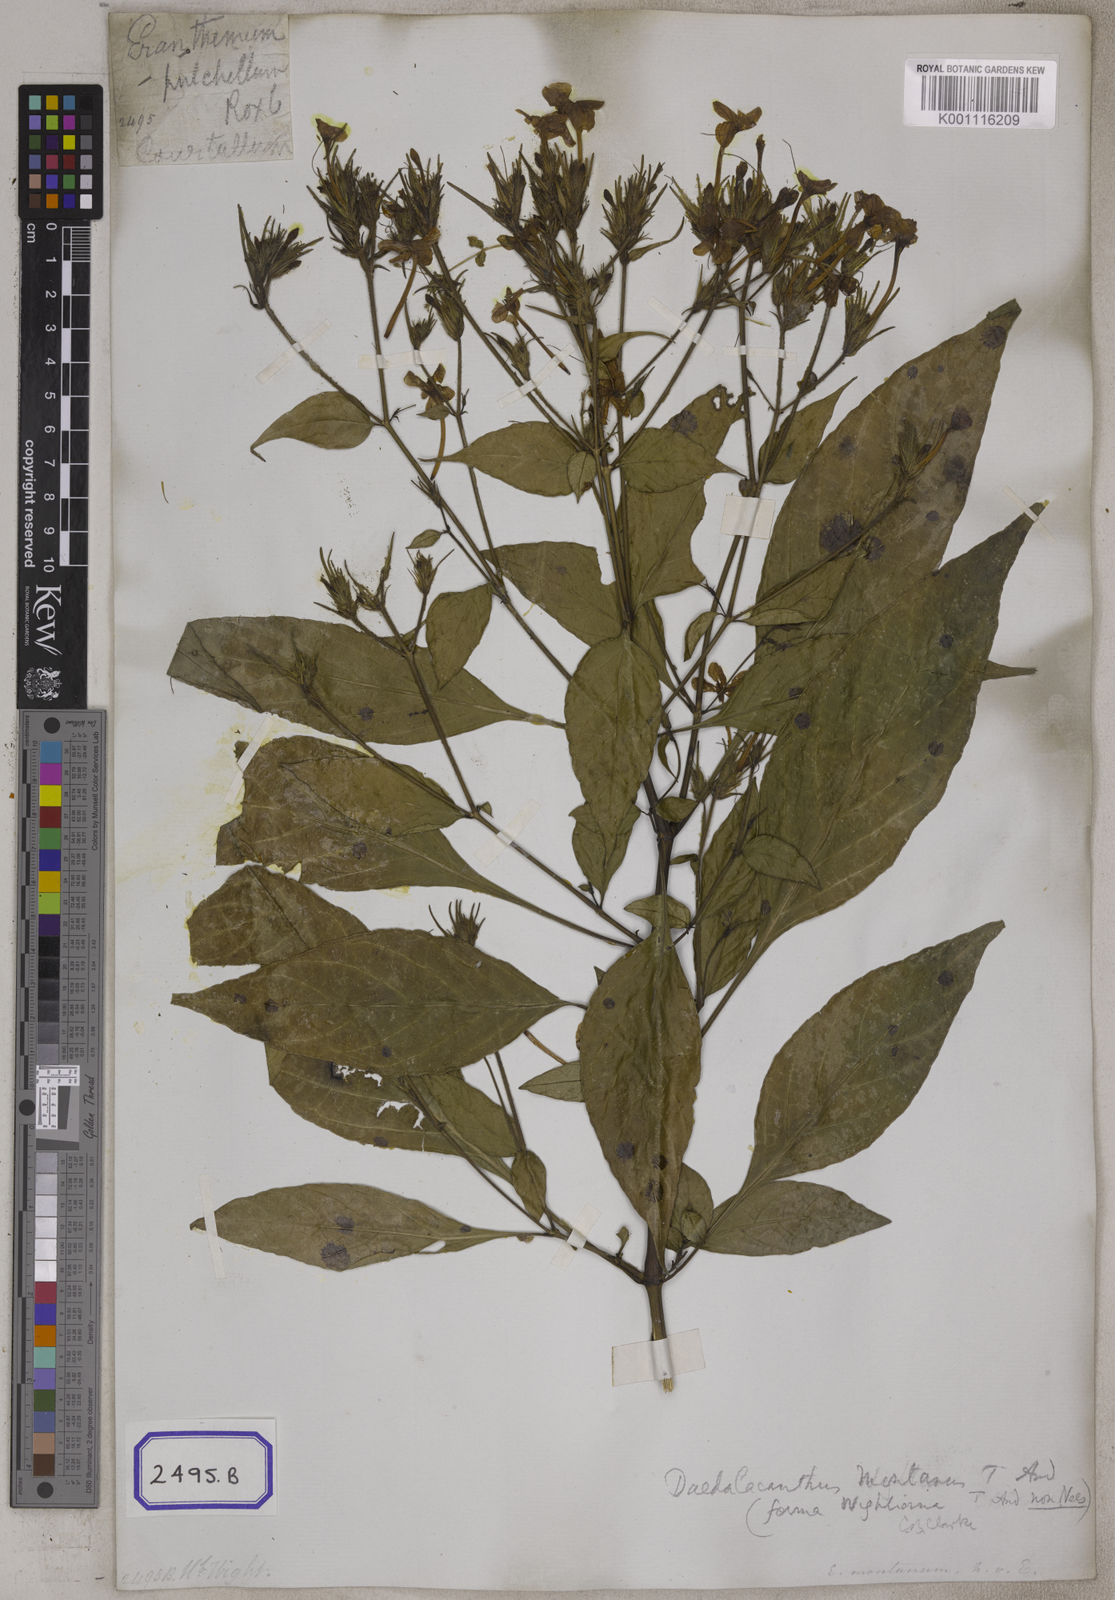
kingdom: Plantae
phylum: Tracheophyta
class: Magnoliopsida
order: Lamiales
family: Acanthaceae
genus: Eranthemum
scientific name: Eranthemum
